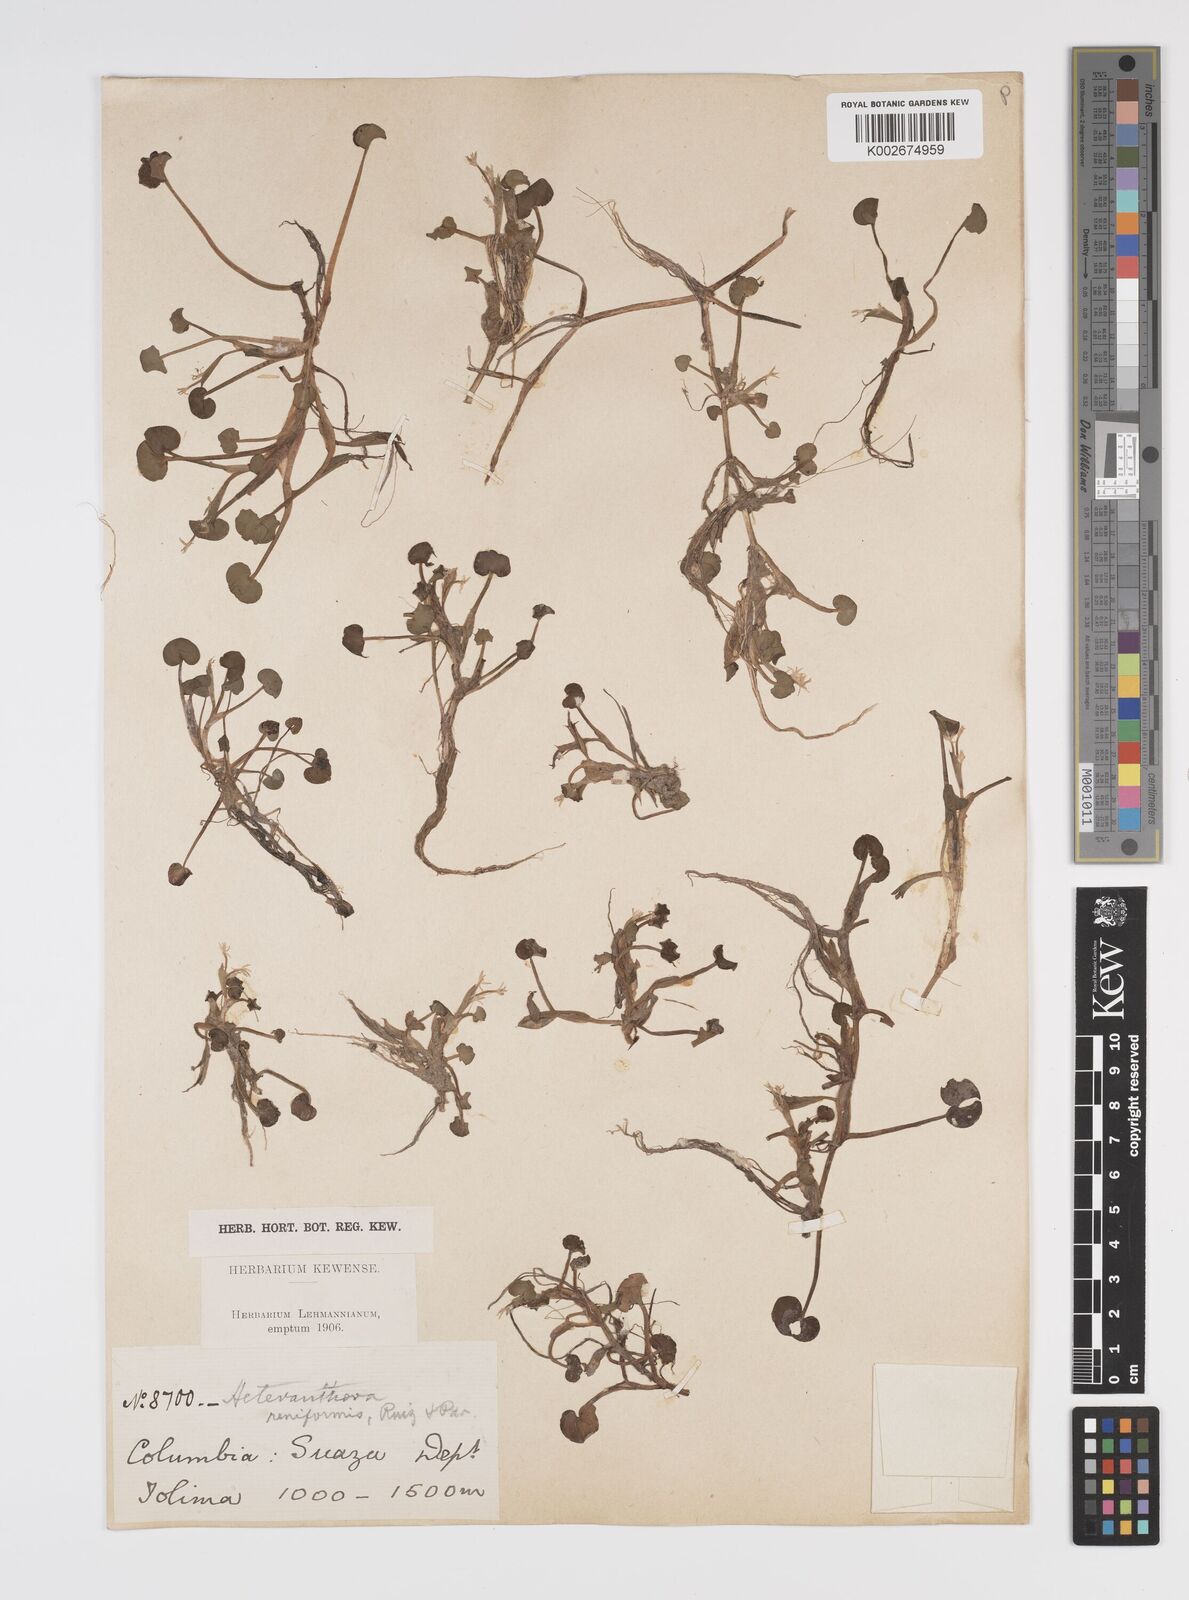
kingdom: Plantae
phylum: Tracheophyta
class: Liliopsida
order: Commelinales
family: Pontederiaceae
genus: Heteranthera
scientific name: Heteranthera reniformis
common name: Kidneyleaf mudplantain
